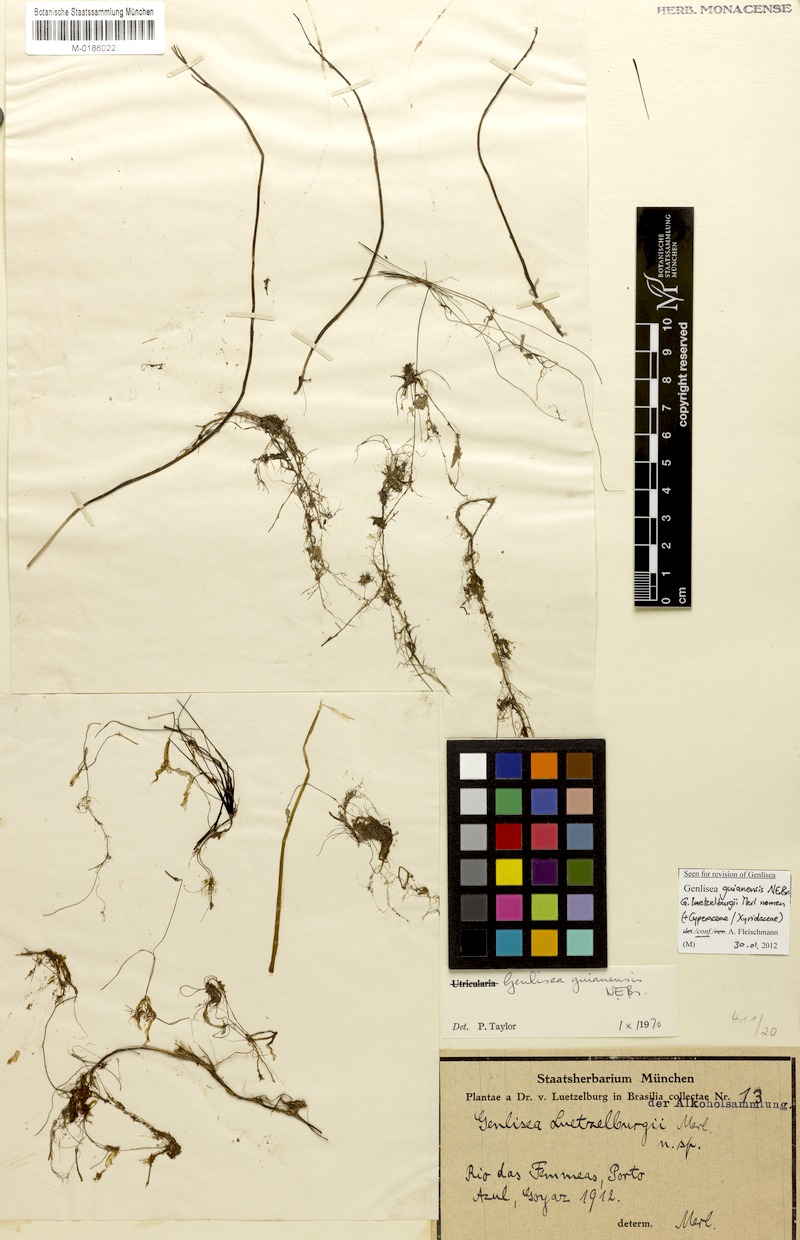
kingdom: Plantae
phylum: Tracheophyta
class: Magnoliopsida
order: Lamiales
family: Lentibulariaceae
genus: Genlisea
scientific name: Genlisea guianensis
